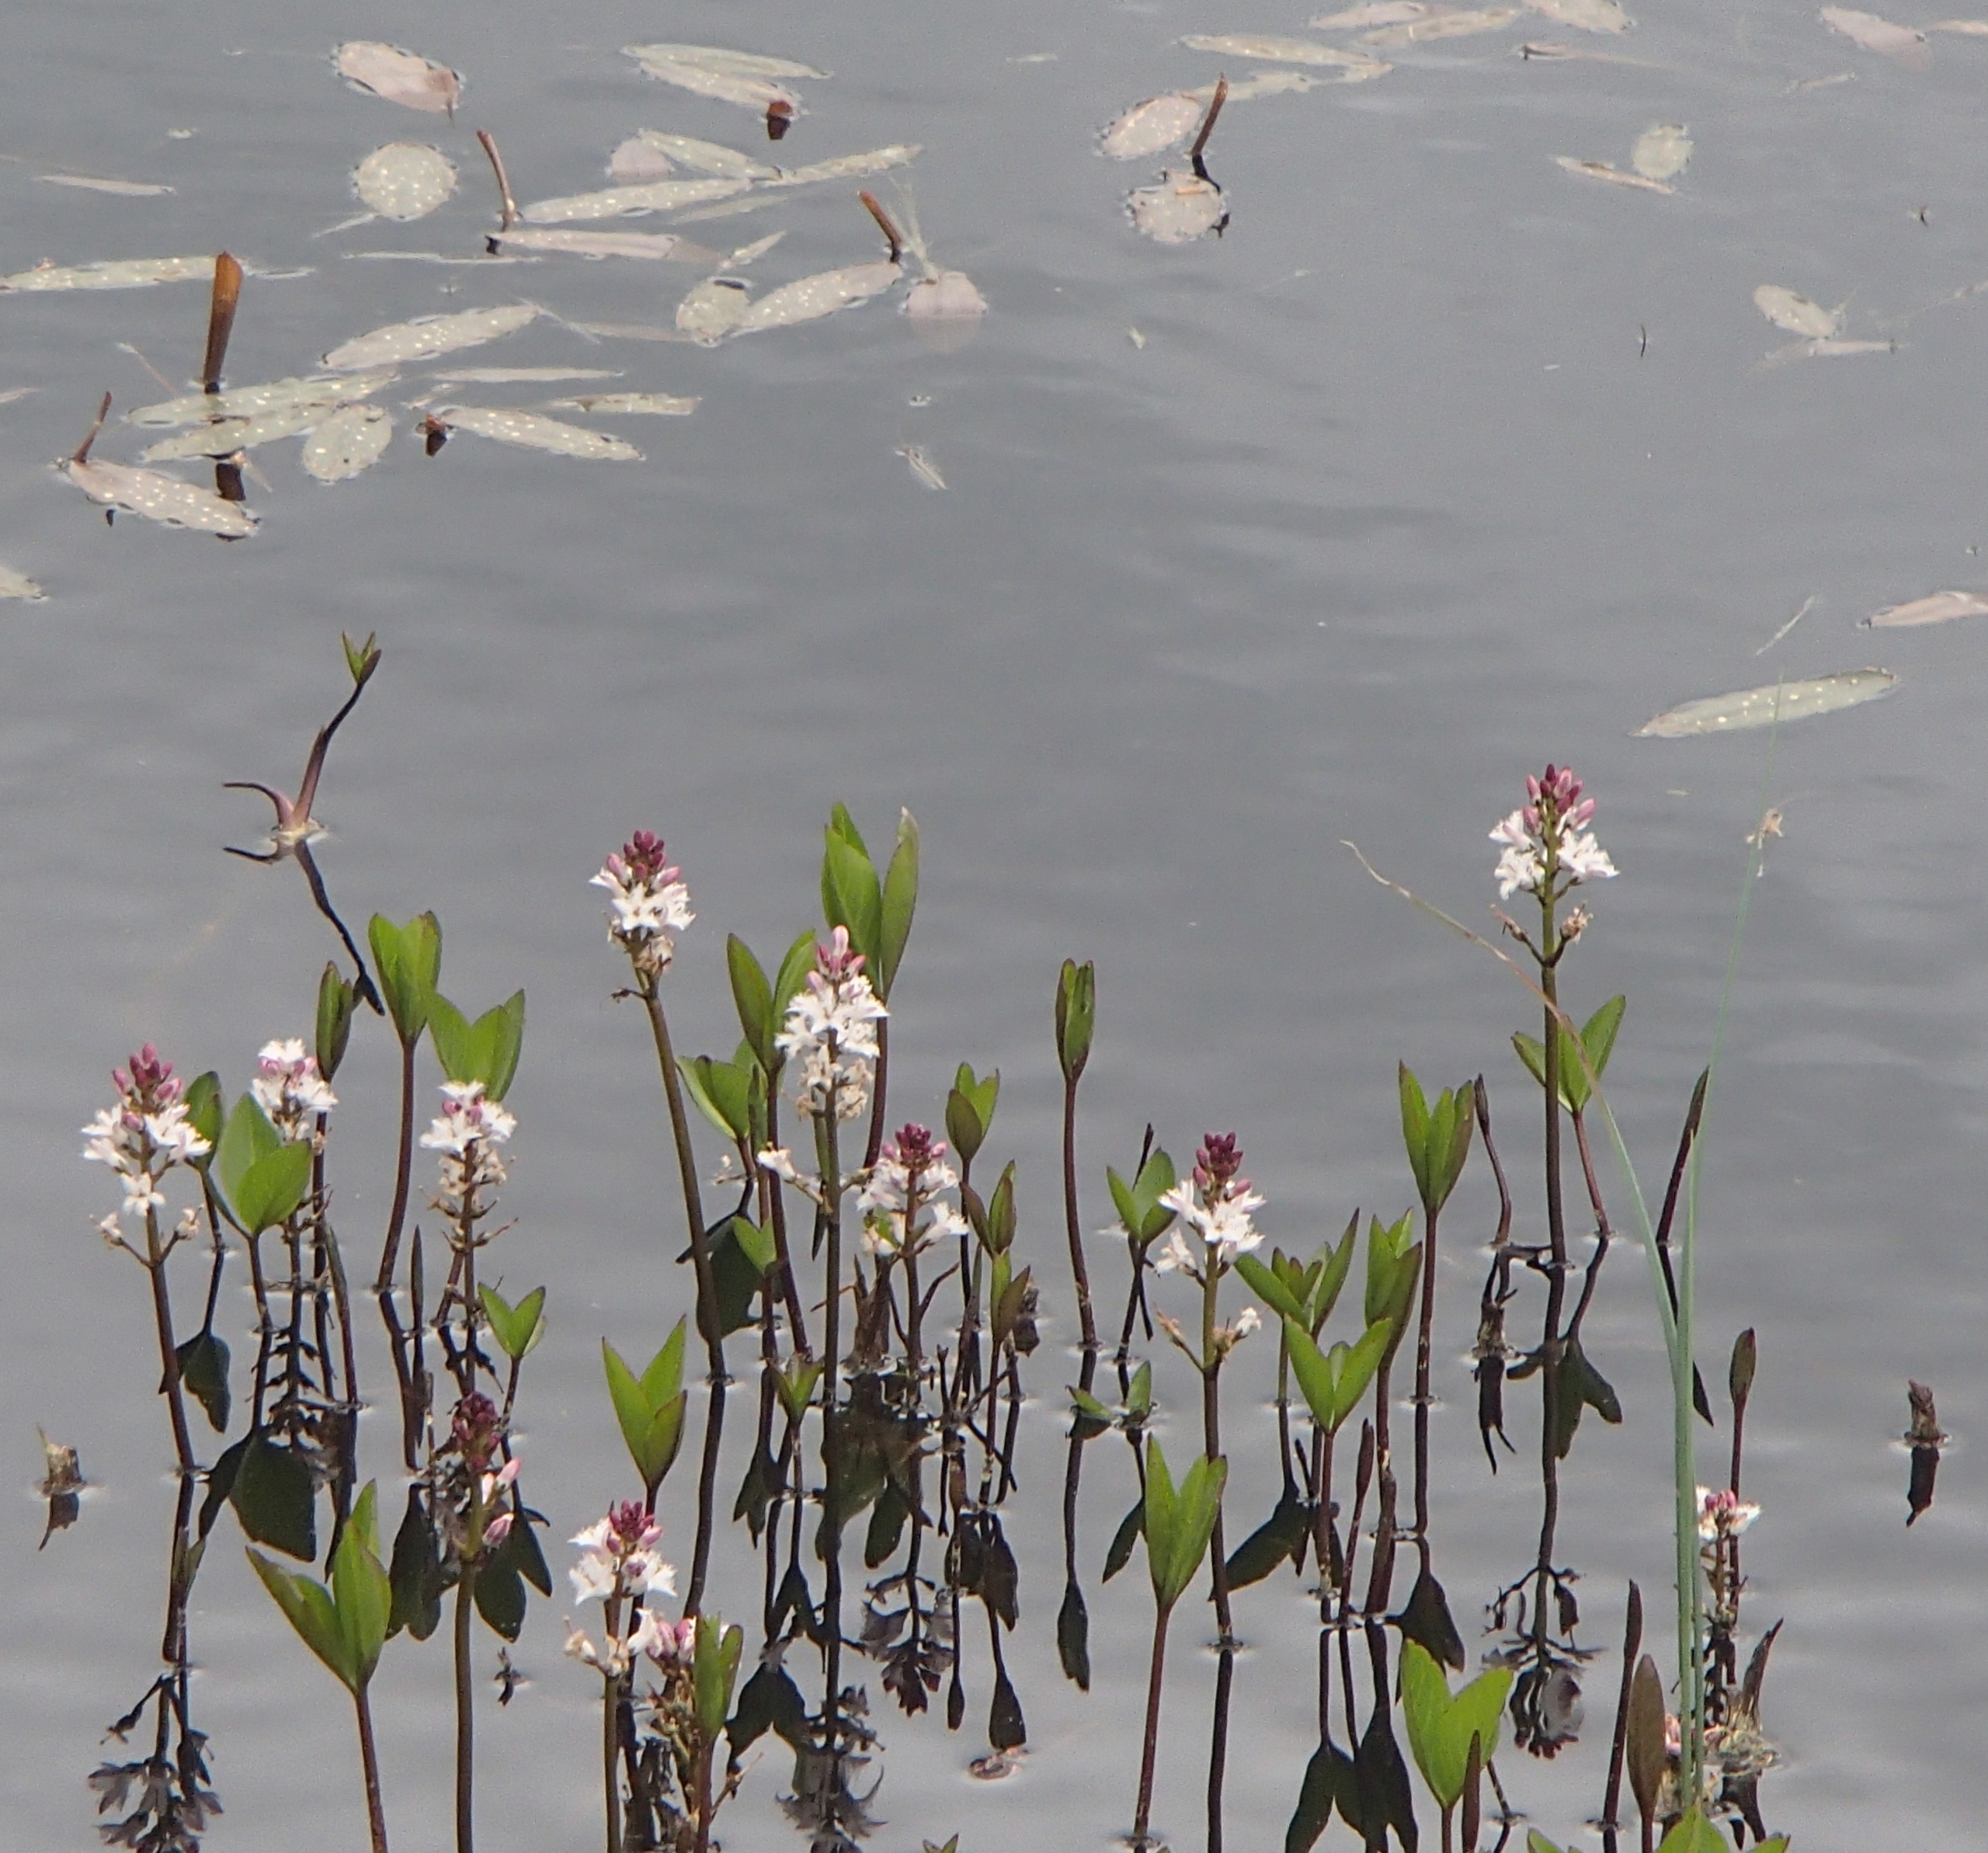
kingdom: Plantae
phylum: Tracheophyta
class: Magnoliopsida
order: Asterales
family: Menyanthaceae
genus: Menyanthes
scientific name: Menyanthes trifoliata
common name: Bukkeblad
